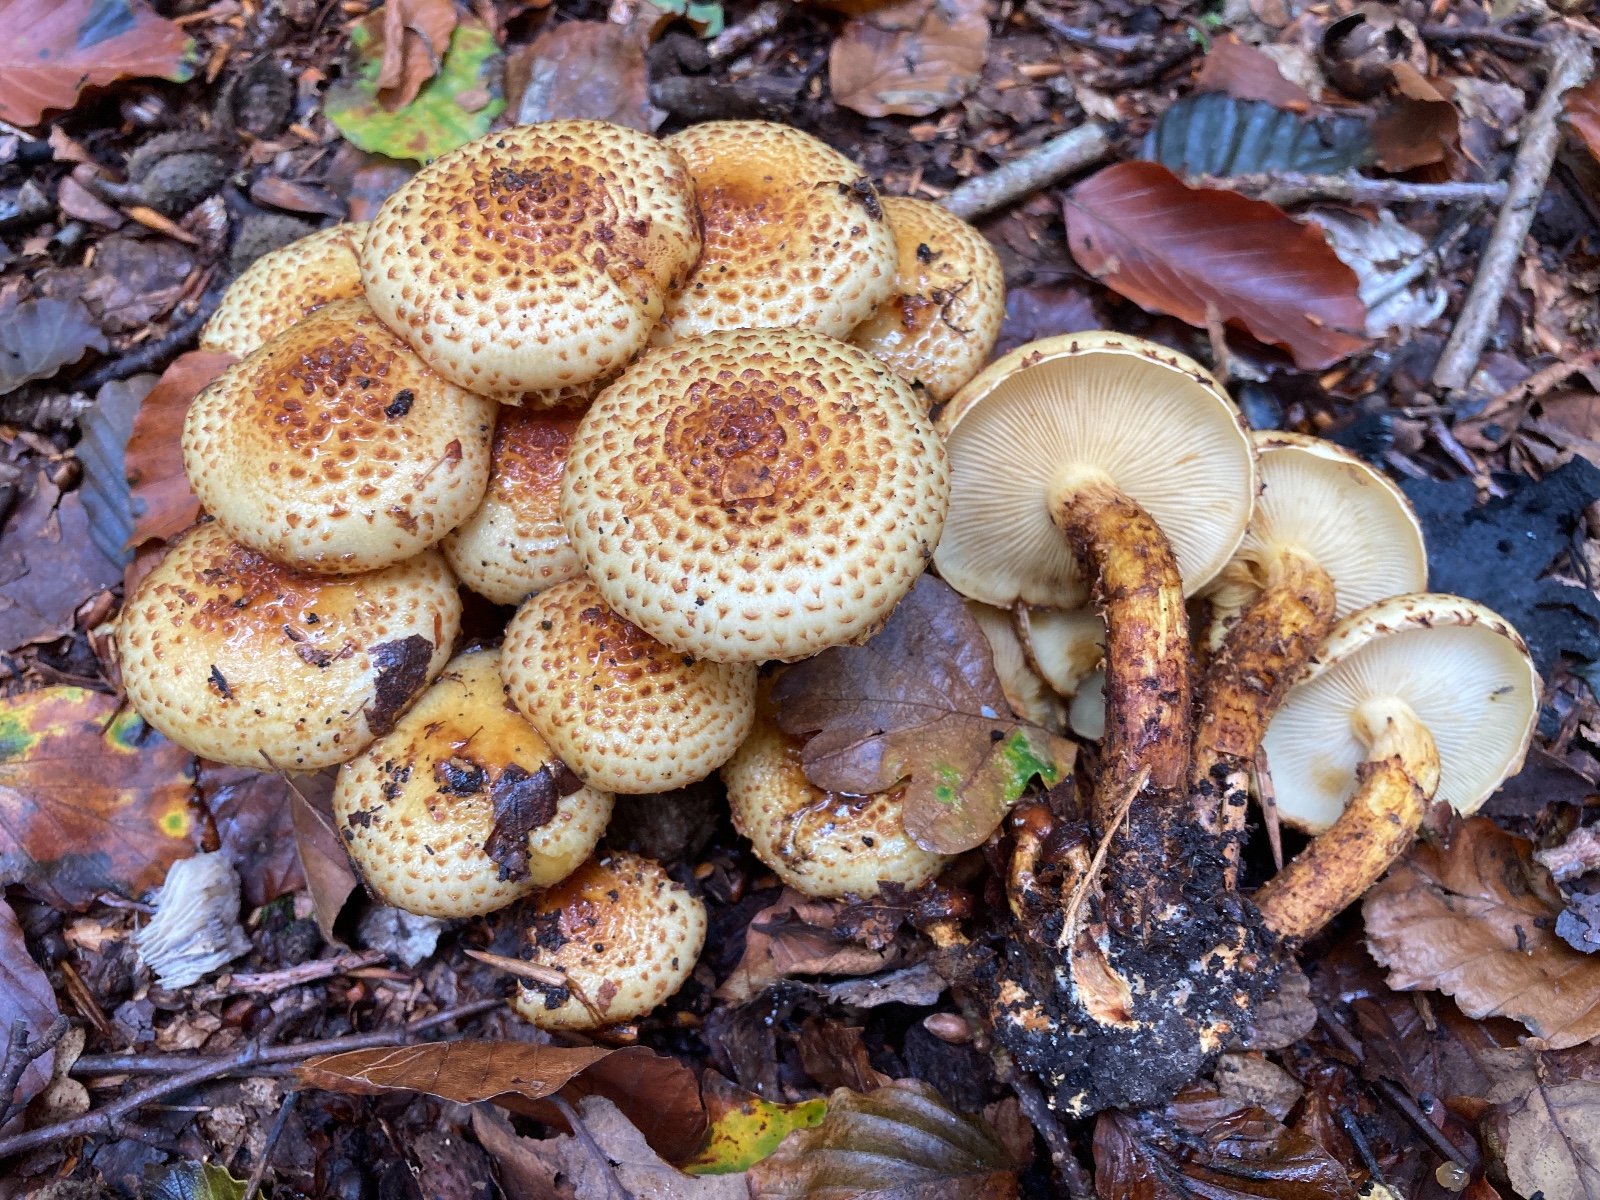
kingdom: Fungi
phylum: Basidiomycota
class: Agaricomycetes
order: Agaricales
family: Strophariaceae
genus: Pholiota
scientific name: Pholiota jahnii
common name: slimet skælhat
